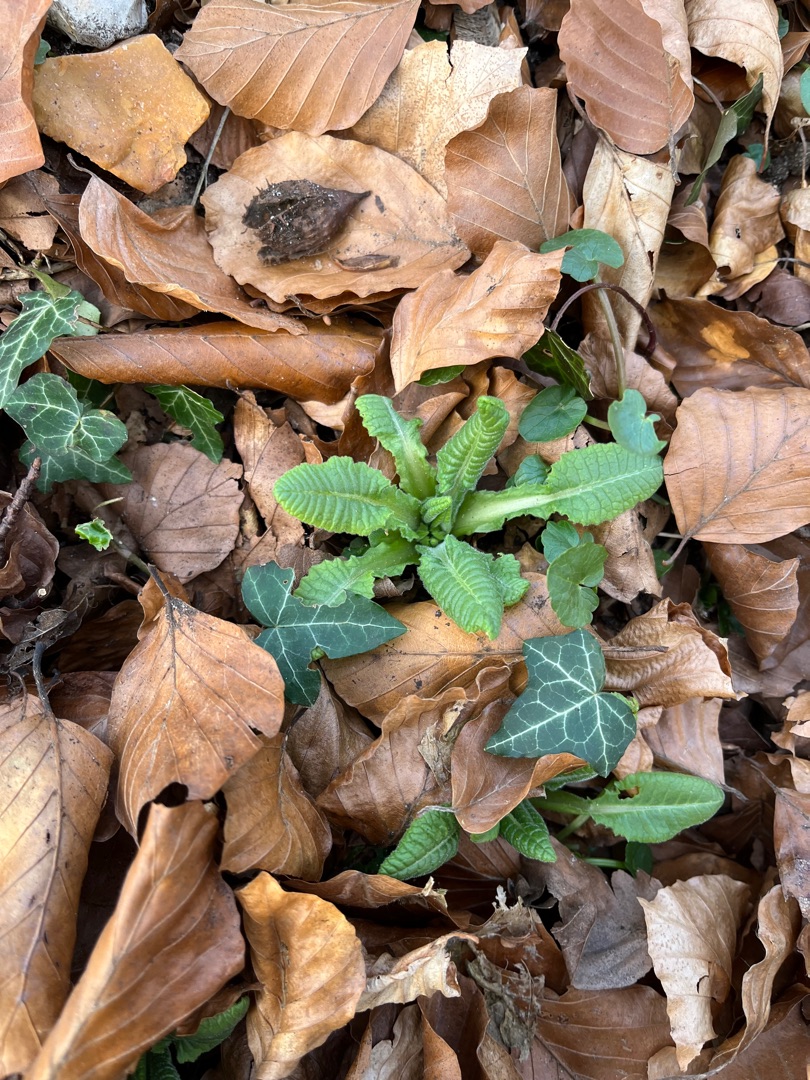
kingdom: Plantae
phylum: Tracheophyta
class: Magnoliopsida
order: Ericales
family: Primulaceae
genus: Primula
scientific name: Primula elatior
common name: Fladkravet kodriver
